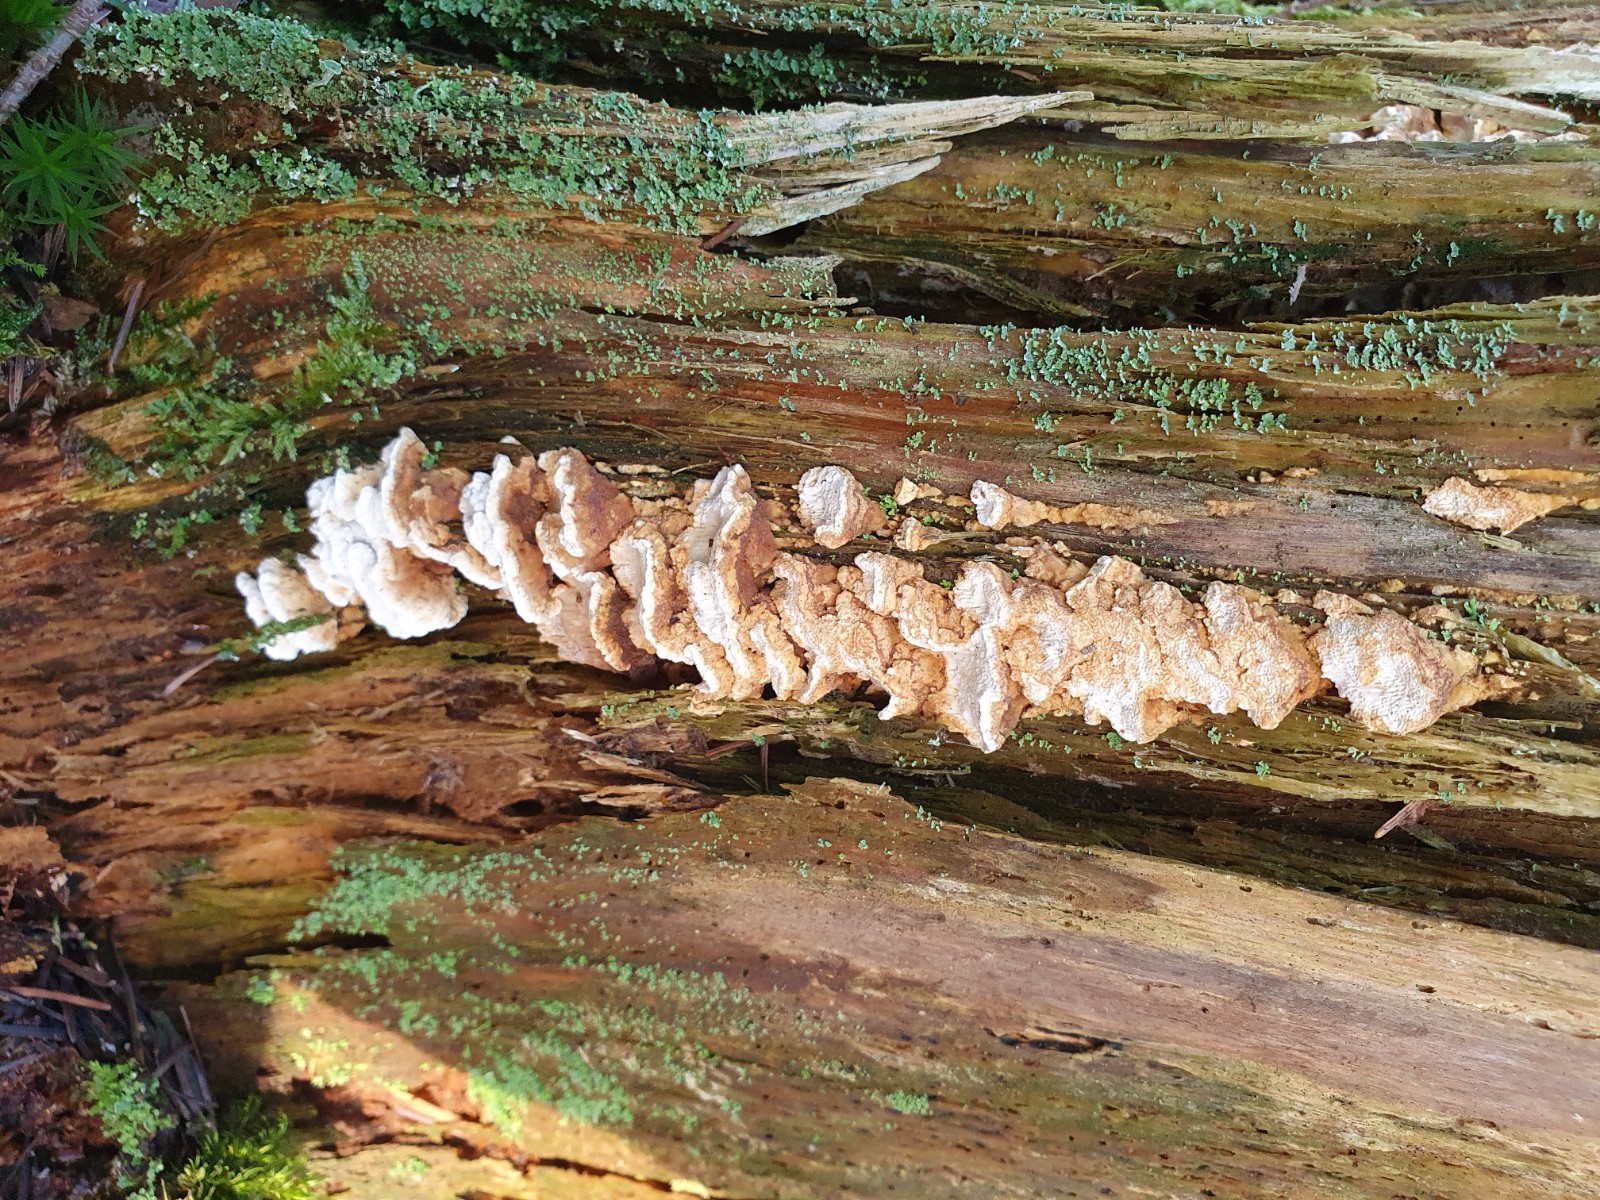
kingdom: Fungi
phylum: Basidiomycota
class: Agaricomycetes
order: Polyporales
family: Fomitopsidaceae
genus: Neoantrodia
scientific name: Neoantrodia serialis
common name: række-sejporesvamp
